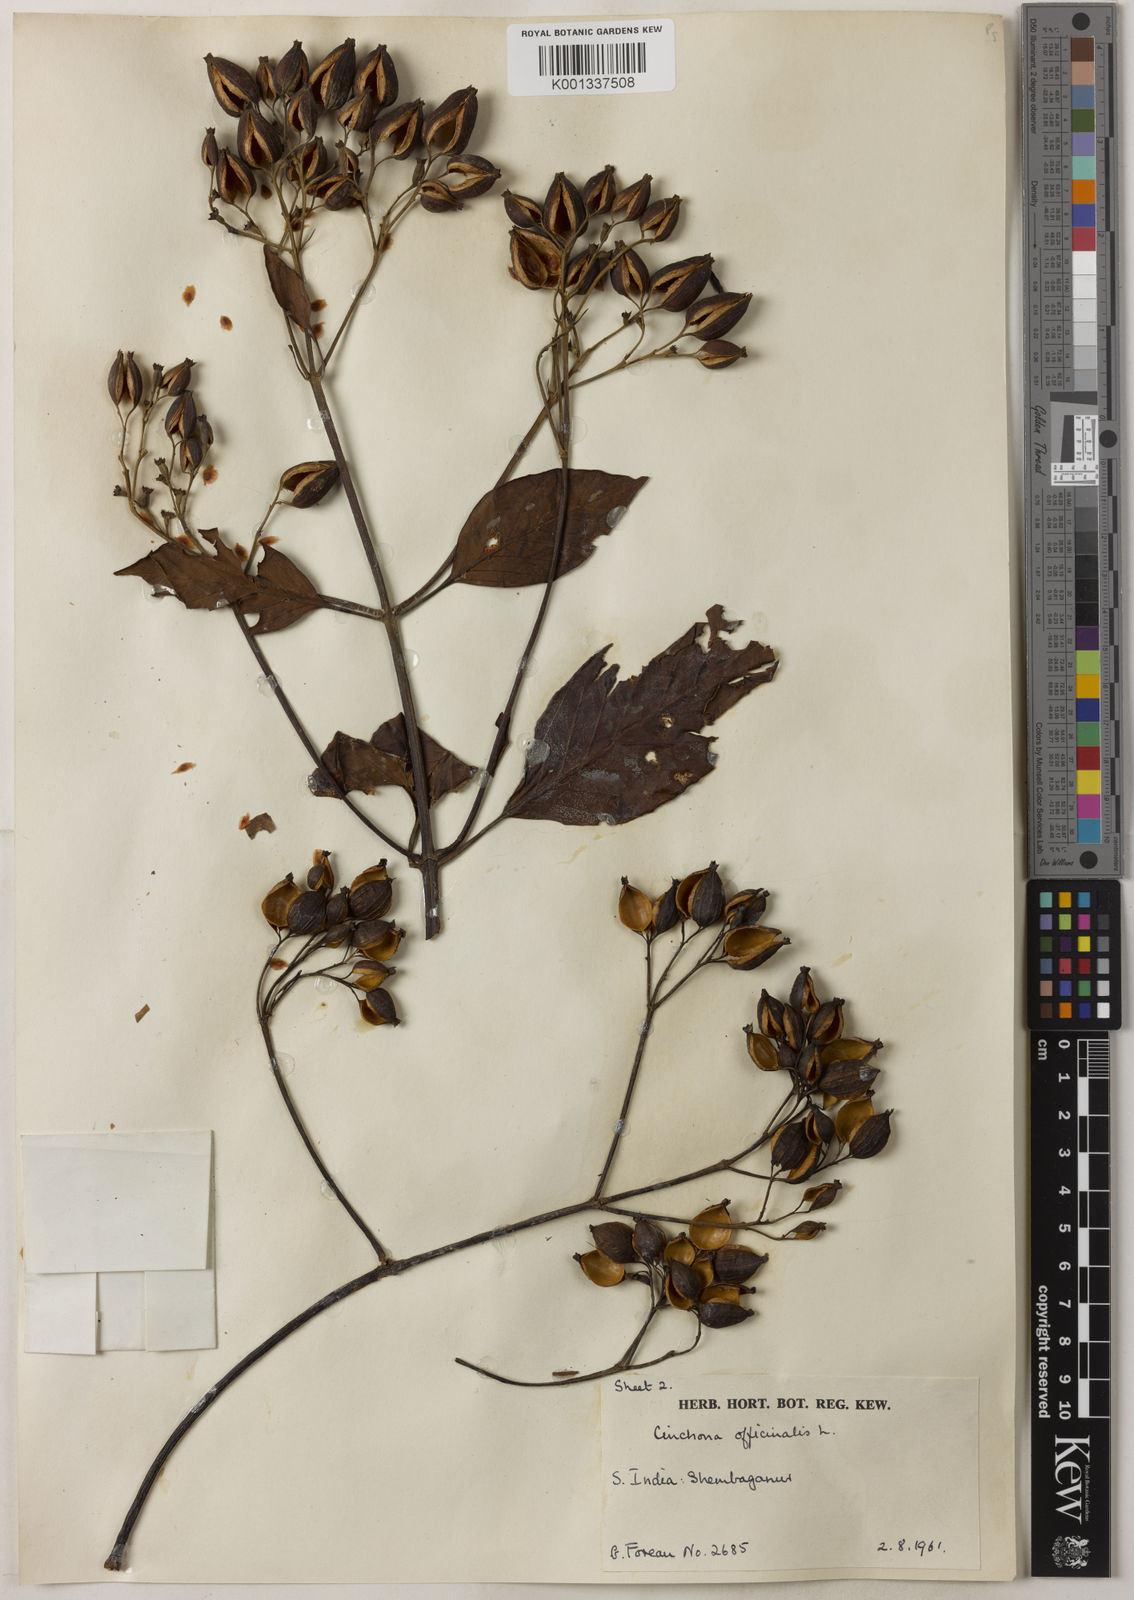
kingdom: Plantae
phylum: Tracheophyta
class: Magnoliopsida
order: Gentianales
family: Rubiaceae
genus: Cinchona
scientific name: Cinchona officinalis
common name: Lojabark
